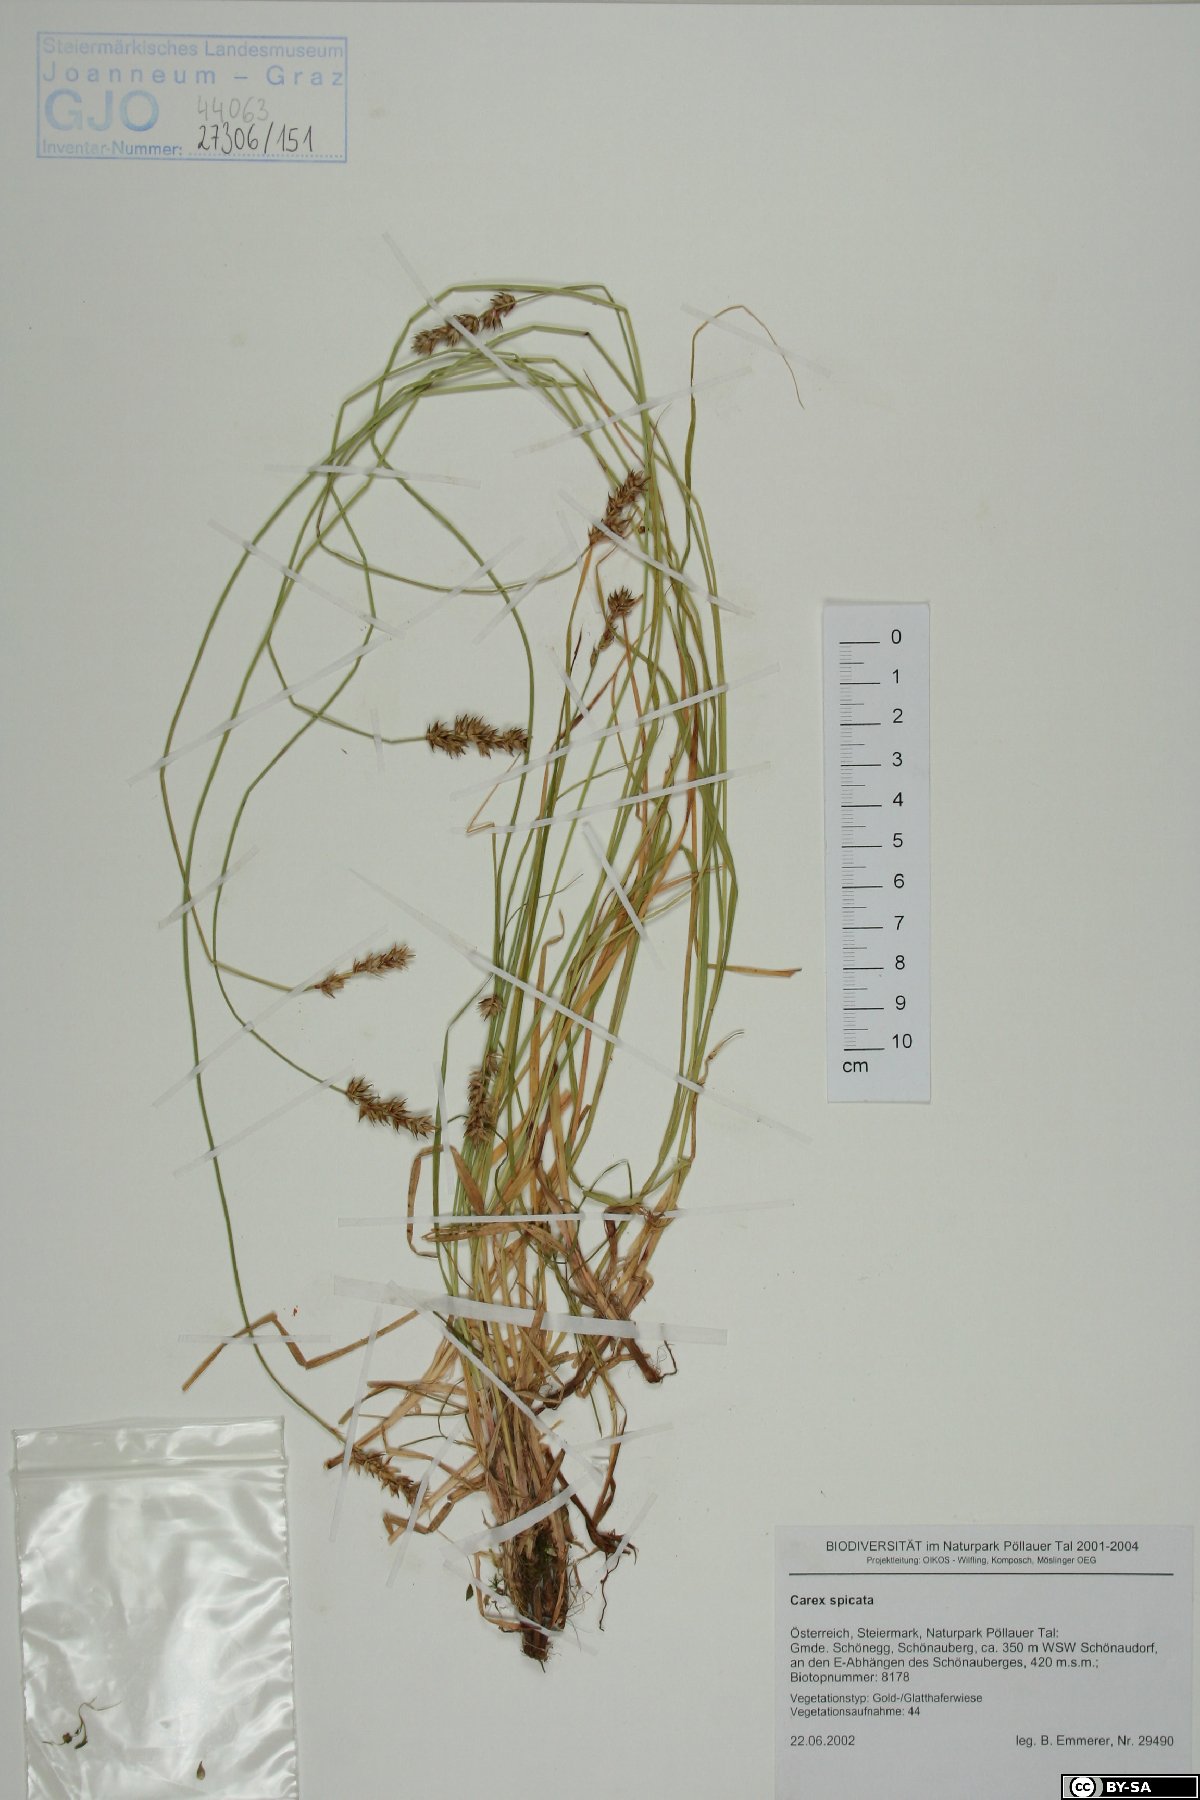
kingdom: Plantae
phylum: Tracheophyta
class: Liliopsida
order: Poales
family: Cyperaceae
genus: Carex
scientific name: Carex spicata
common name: Spiked sedge
